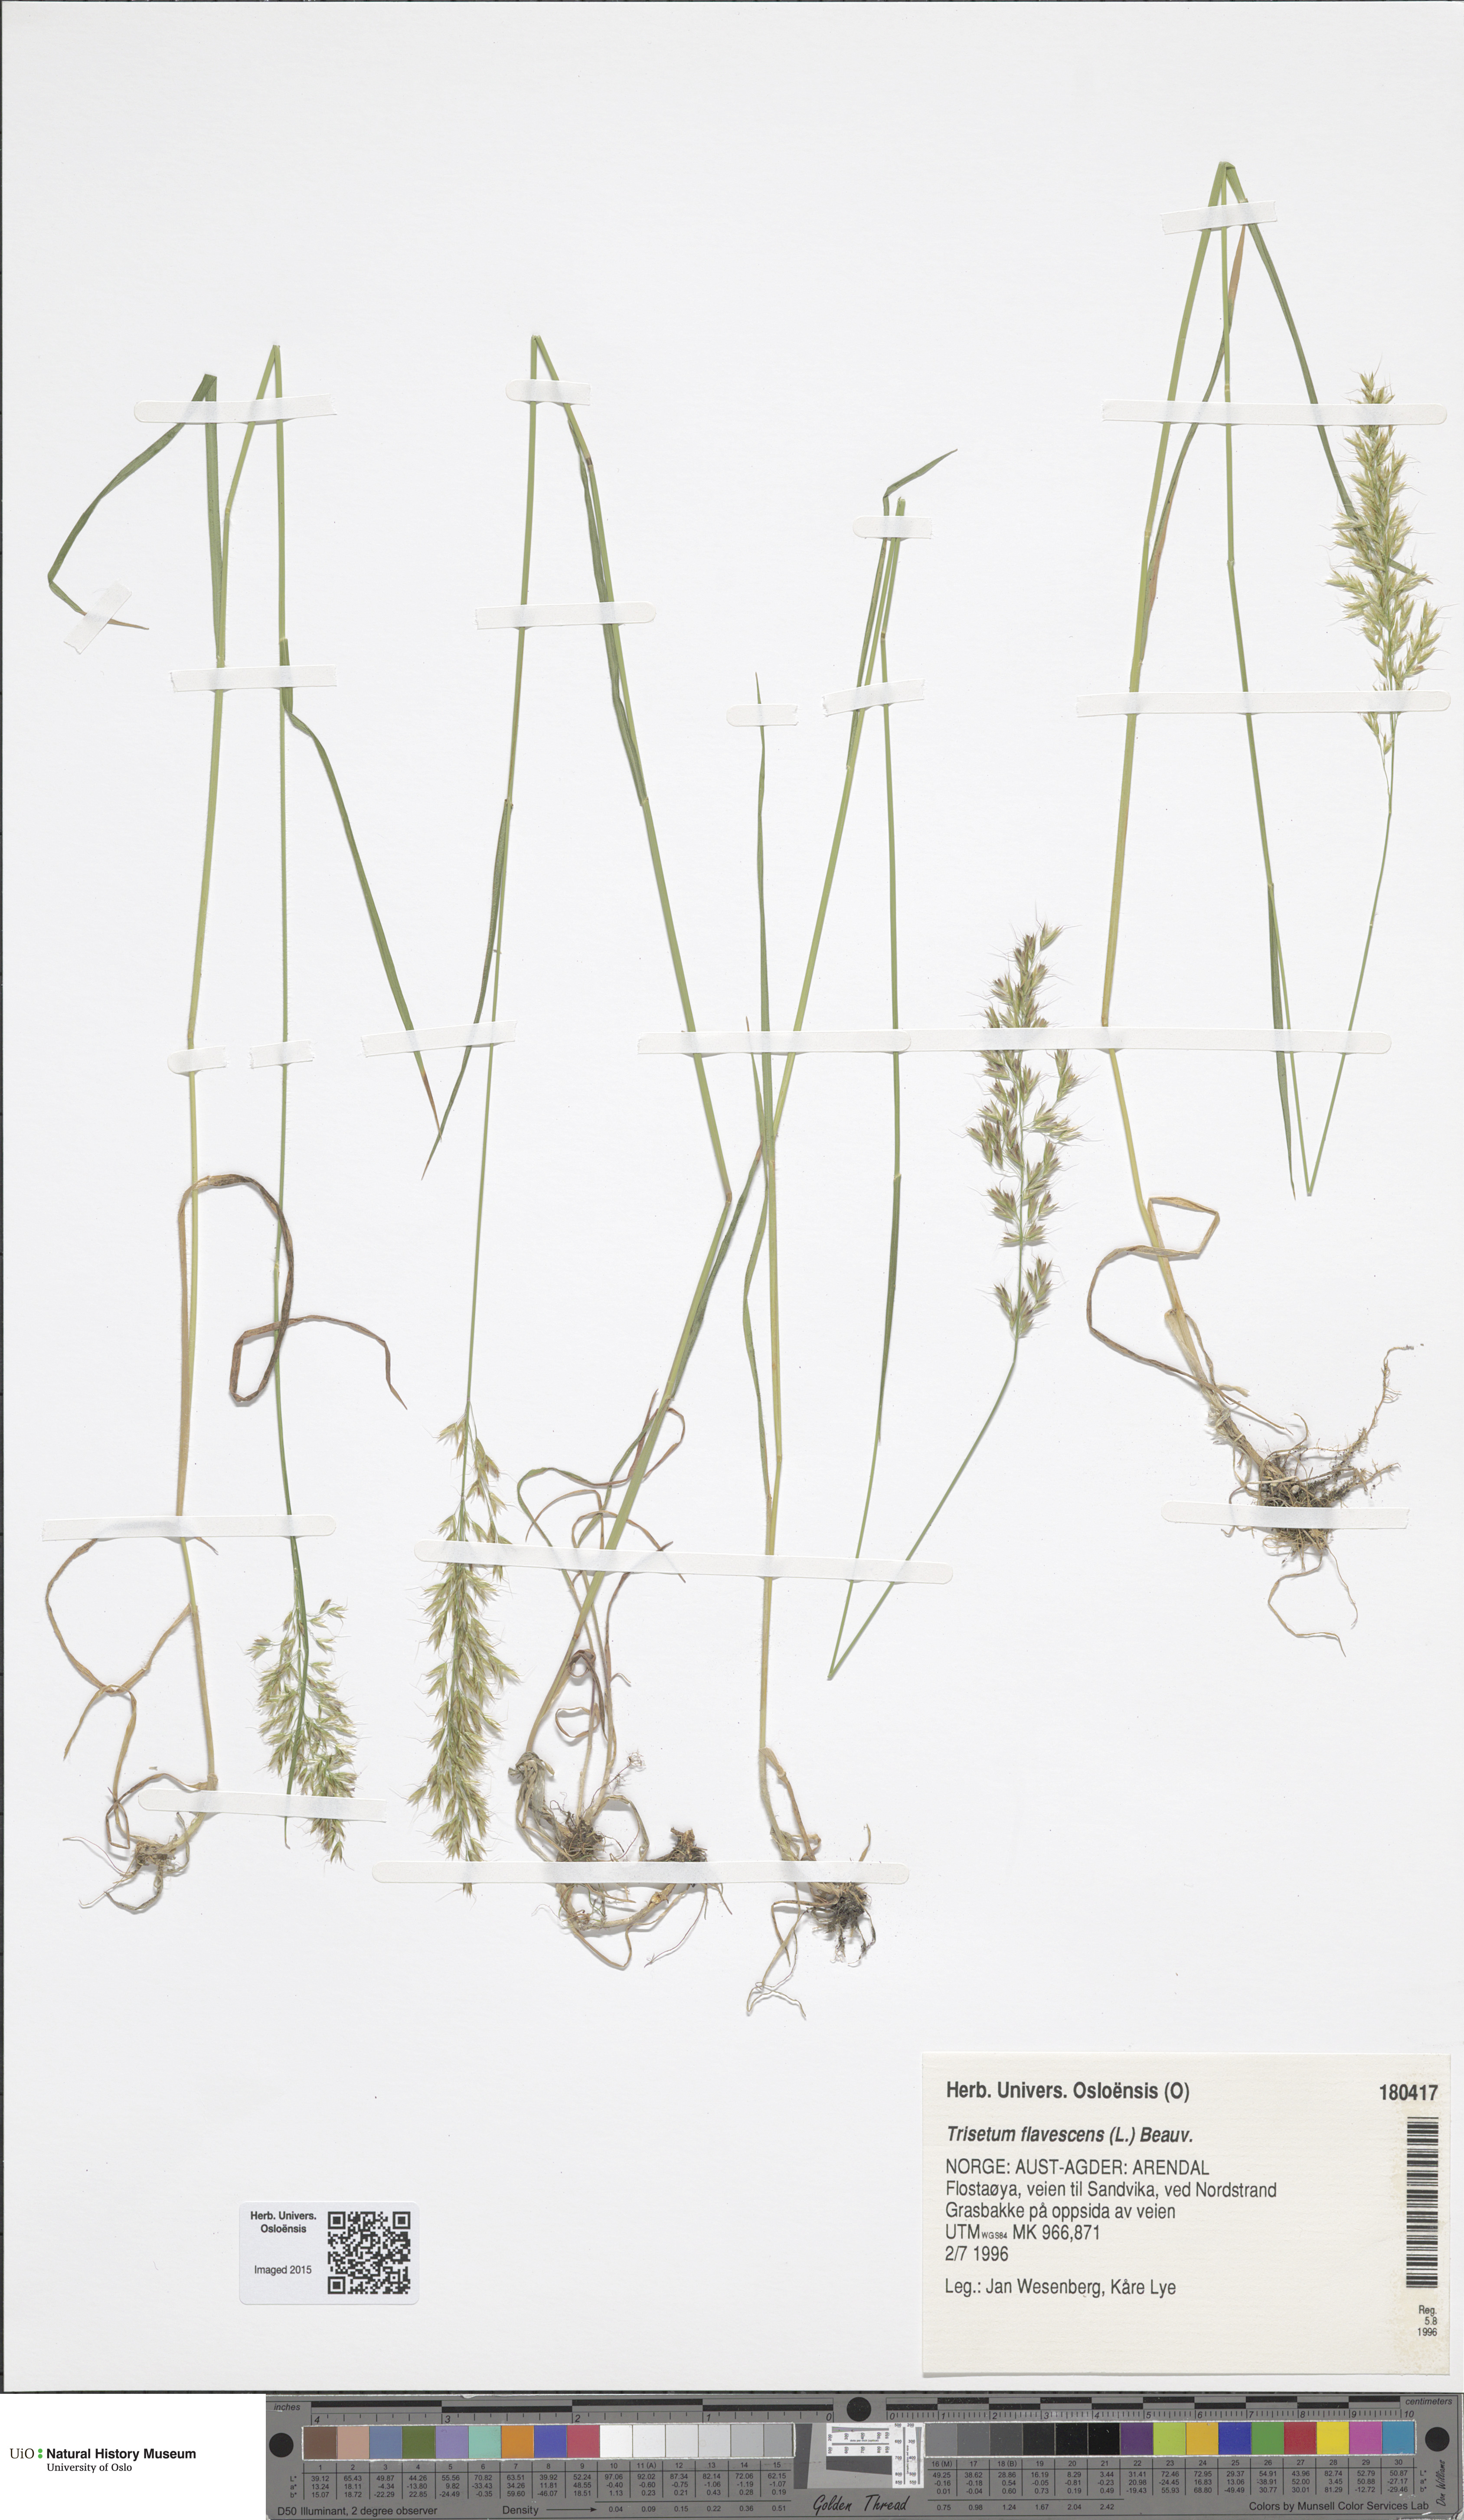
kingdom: Plantae
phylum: Tracheophyta
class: Liliopsida
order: Poales
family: Poaceae
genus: Trisetum
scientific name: Trisetum flavescens
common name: Yellow oat-grass
